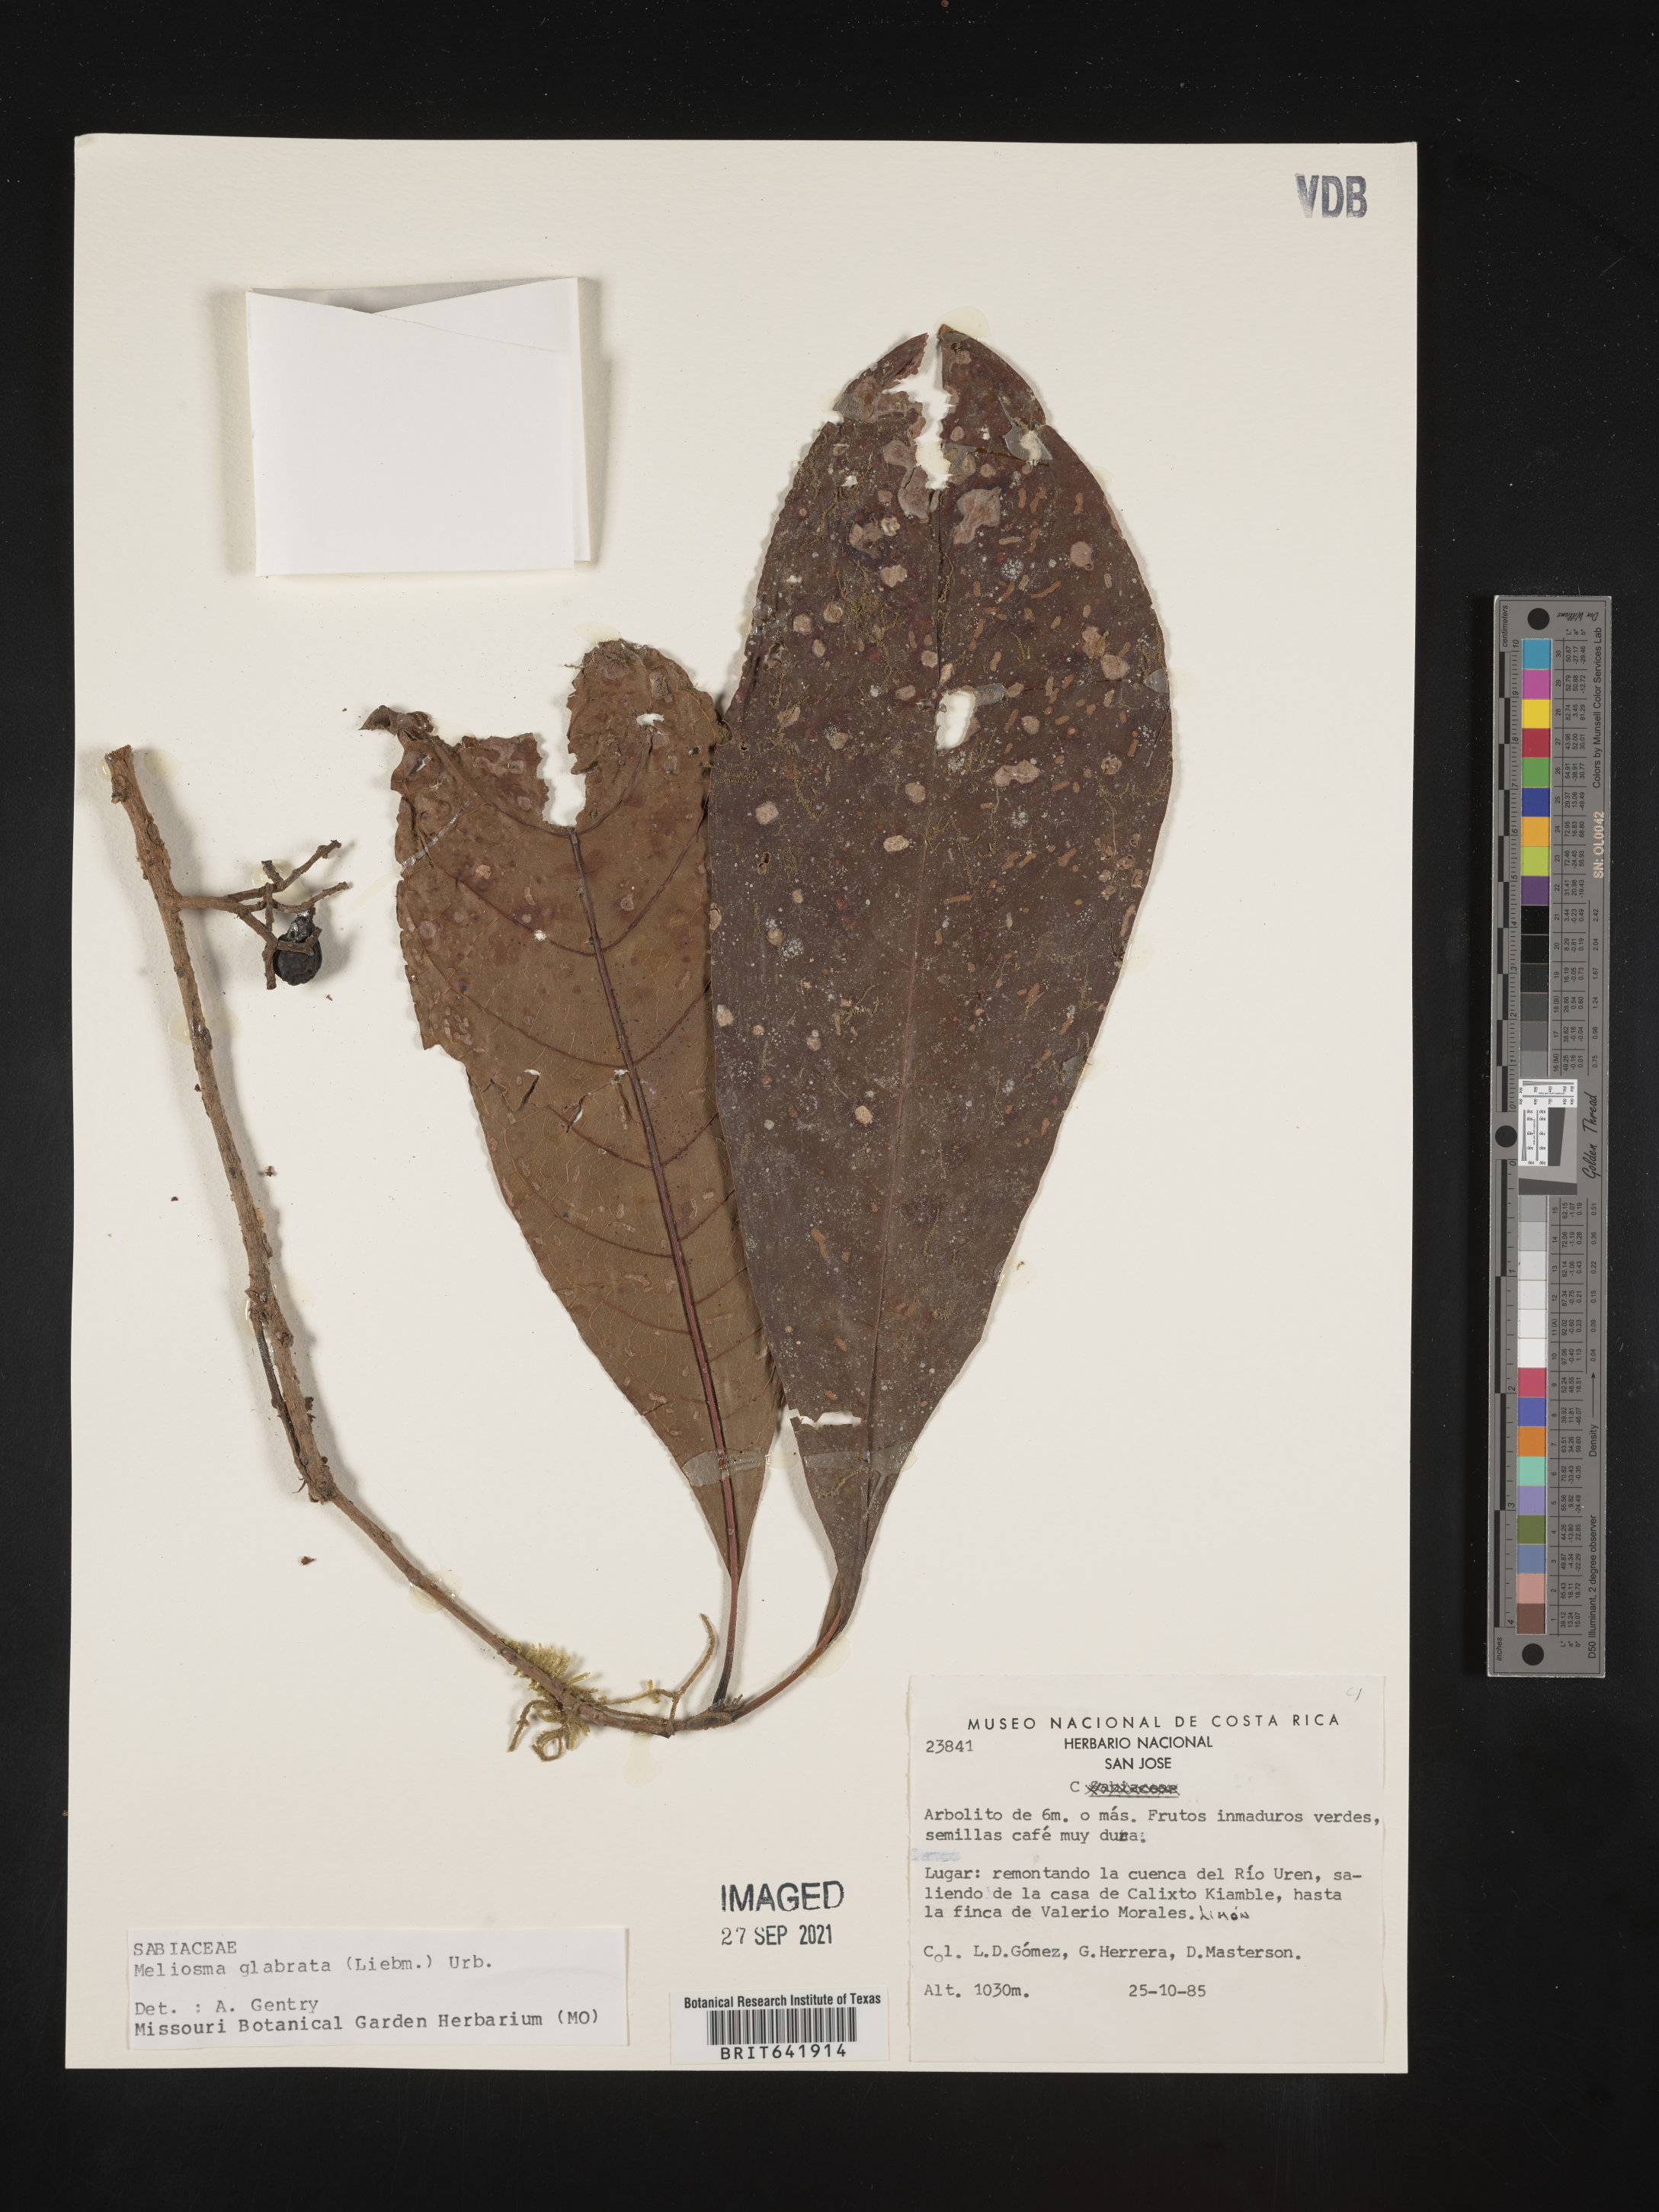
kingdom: Plantae
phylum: Tracheophyta
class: Magnoliopsida
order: Proteales
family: Sabiaceae
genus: Meliosma
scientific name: Meliosma
